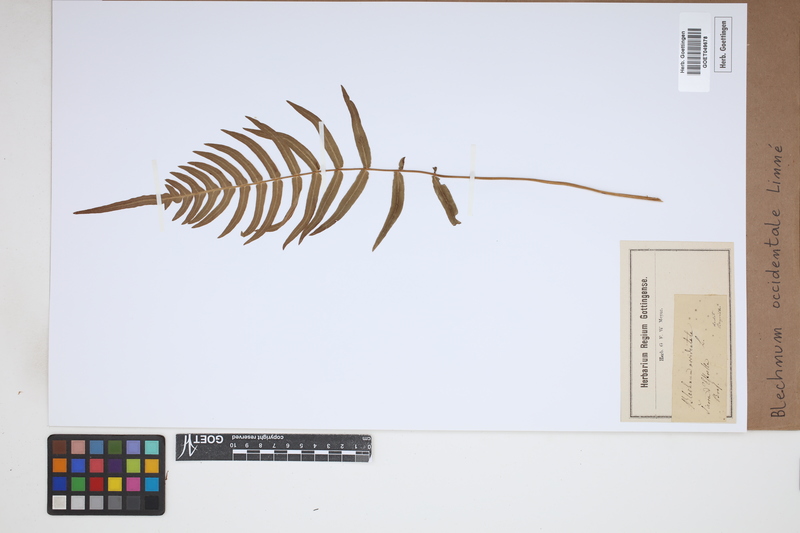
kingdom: Plantae
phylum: Tracheophyta
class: Polypodiopsida
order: Polypodiales
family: Blechnaceae
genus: Blechnum
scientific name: Blechnum occidentale
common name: Hammock fern
